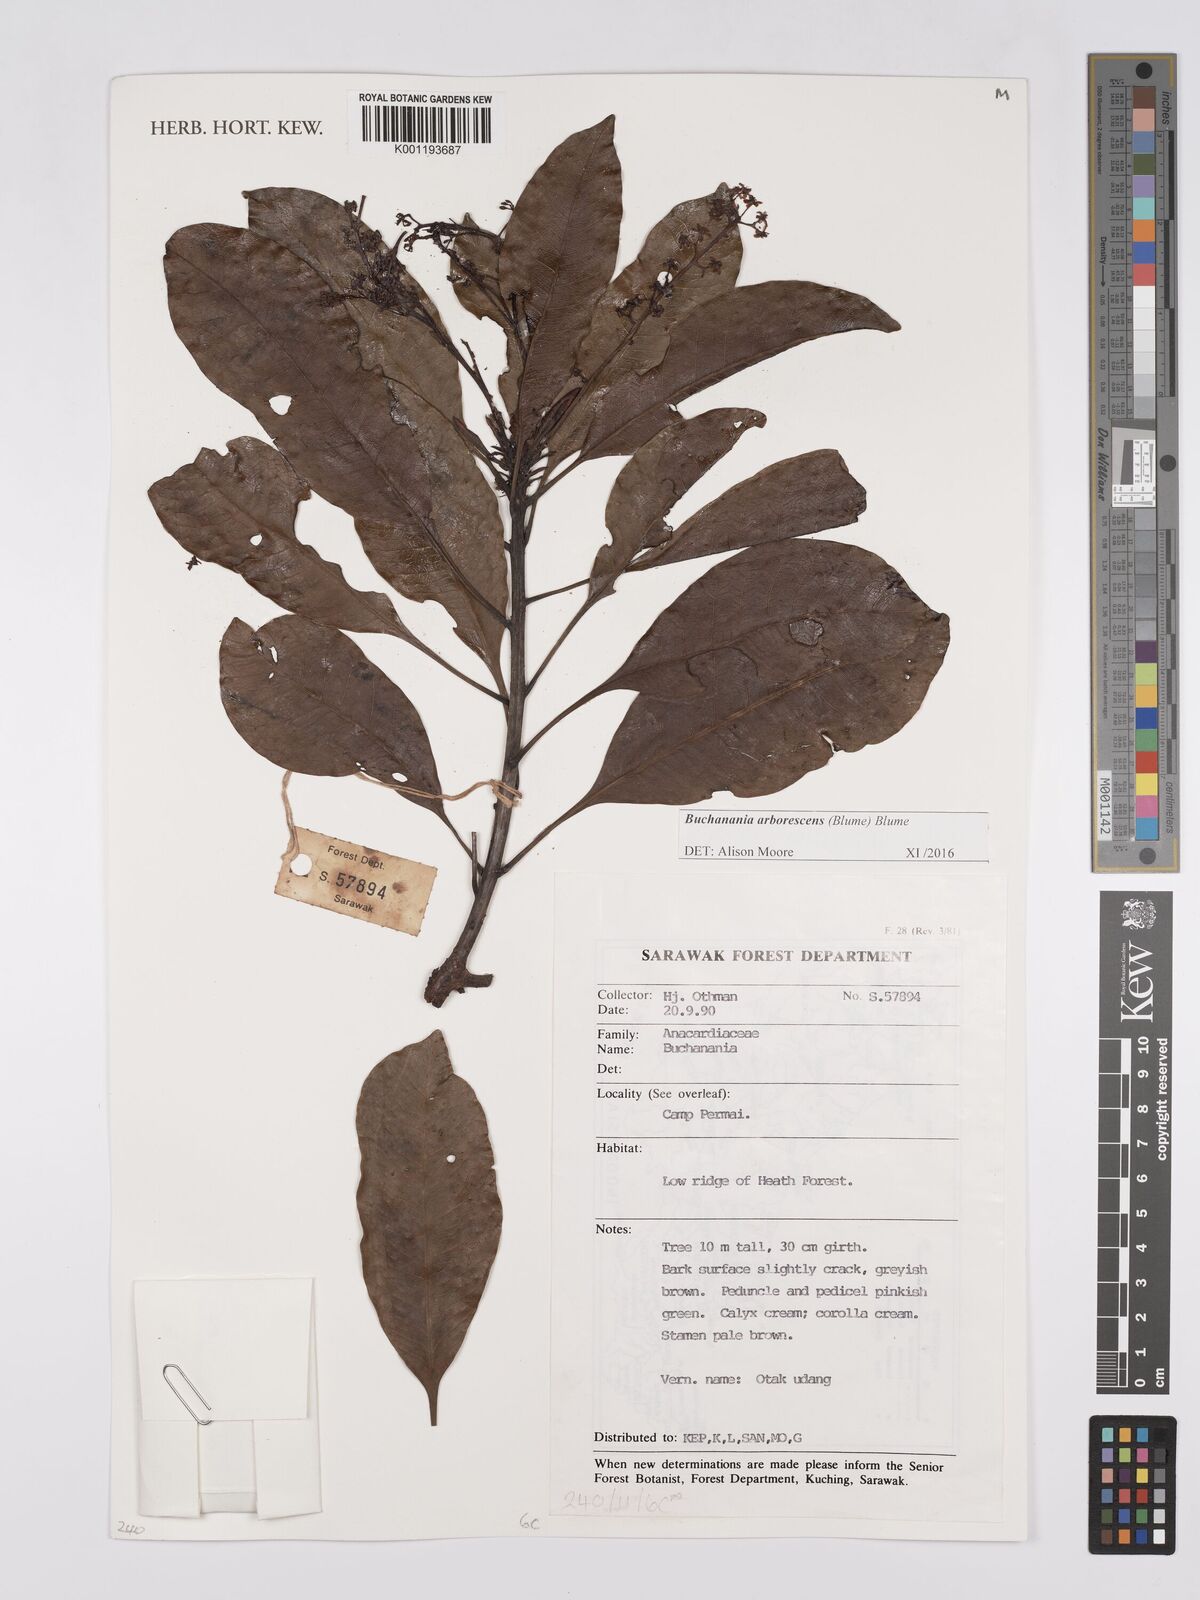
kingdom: Plantae
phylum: Tracheophyta
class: Magnoliopsida
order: Sapindales
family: Anacardiaceae
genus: Buchanania
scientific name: Buchanania arborescens
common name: Sparrow’s mango
